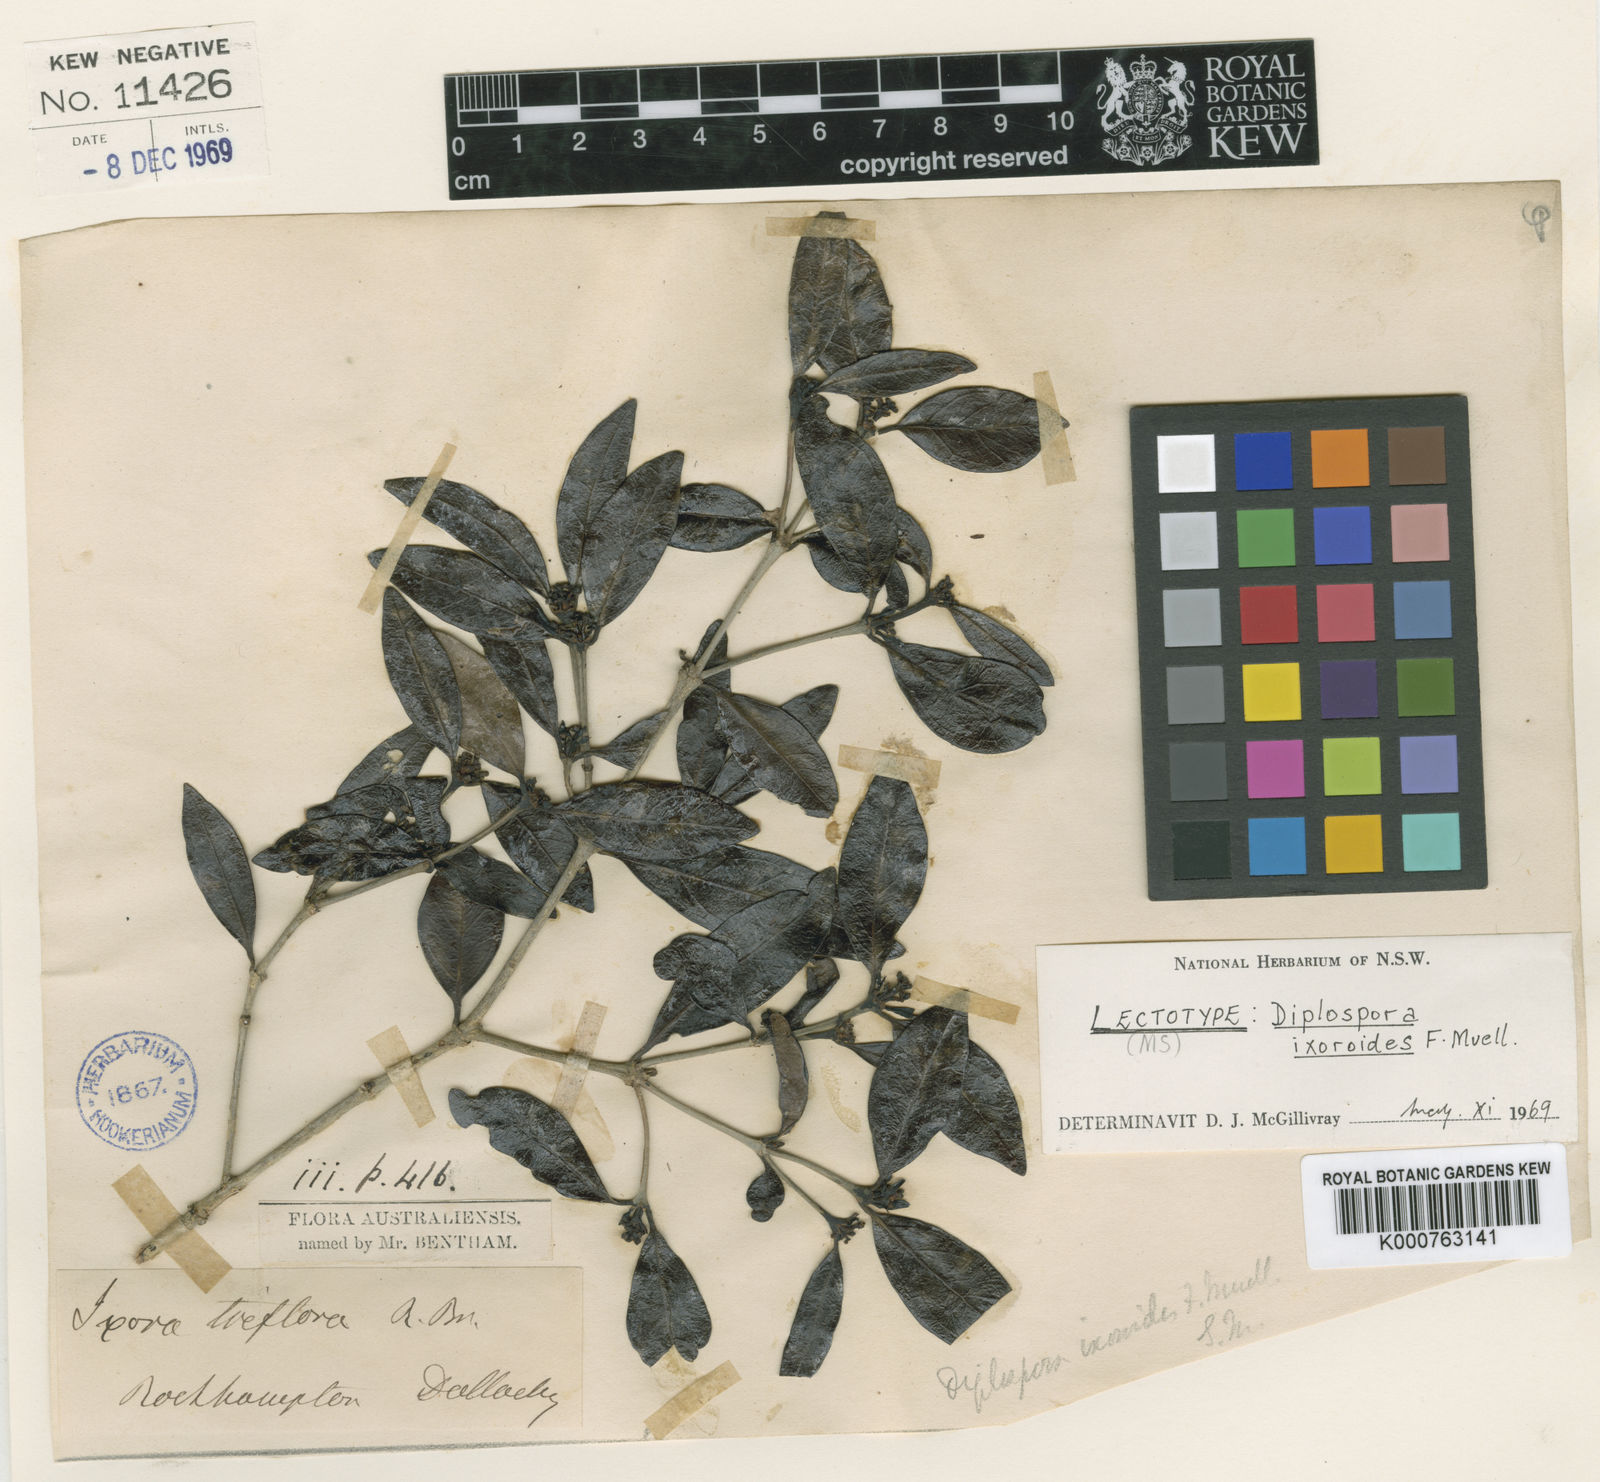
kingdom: Plantae
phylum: Tracheophyta
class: Magnoliopsida
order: Gentianales
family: Rubiaceae
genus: Triflorensia
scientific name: Triflorensia
